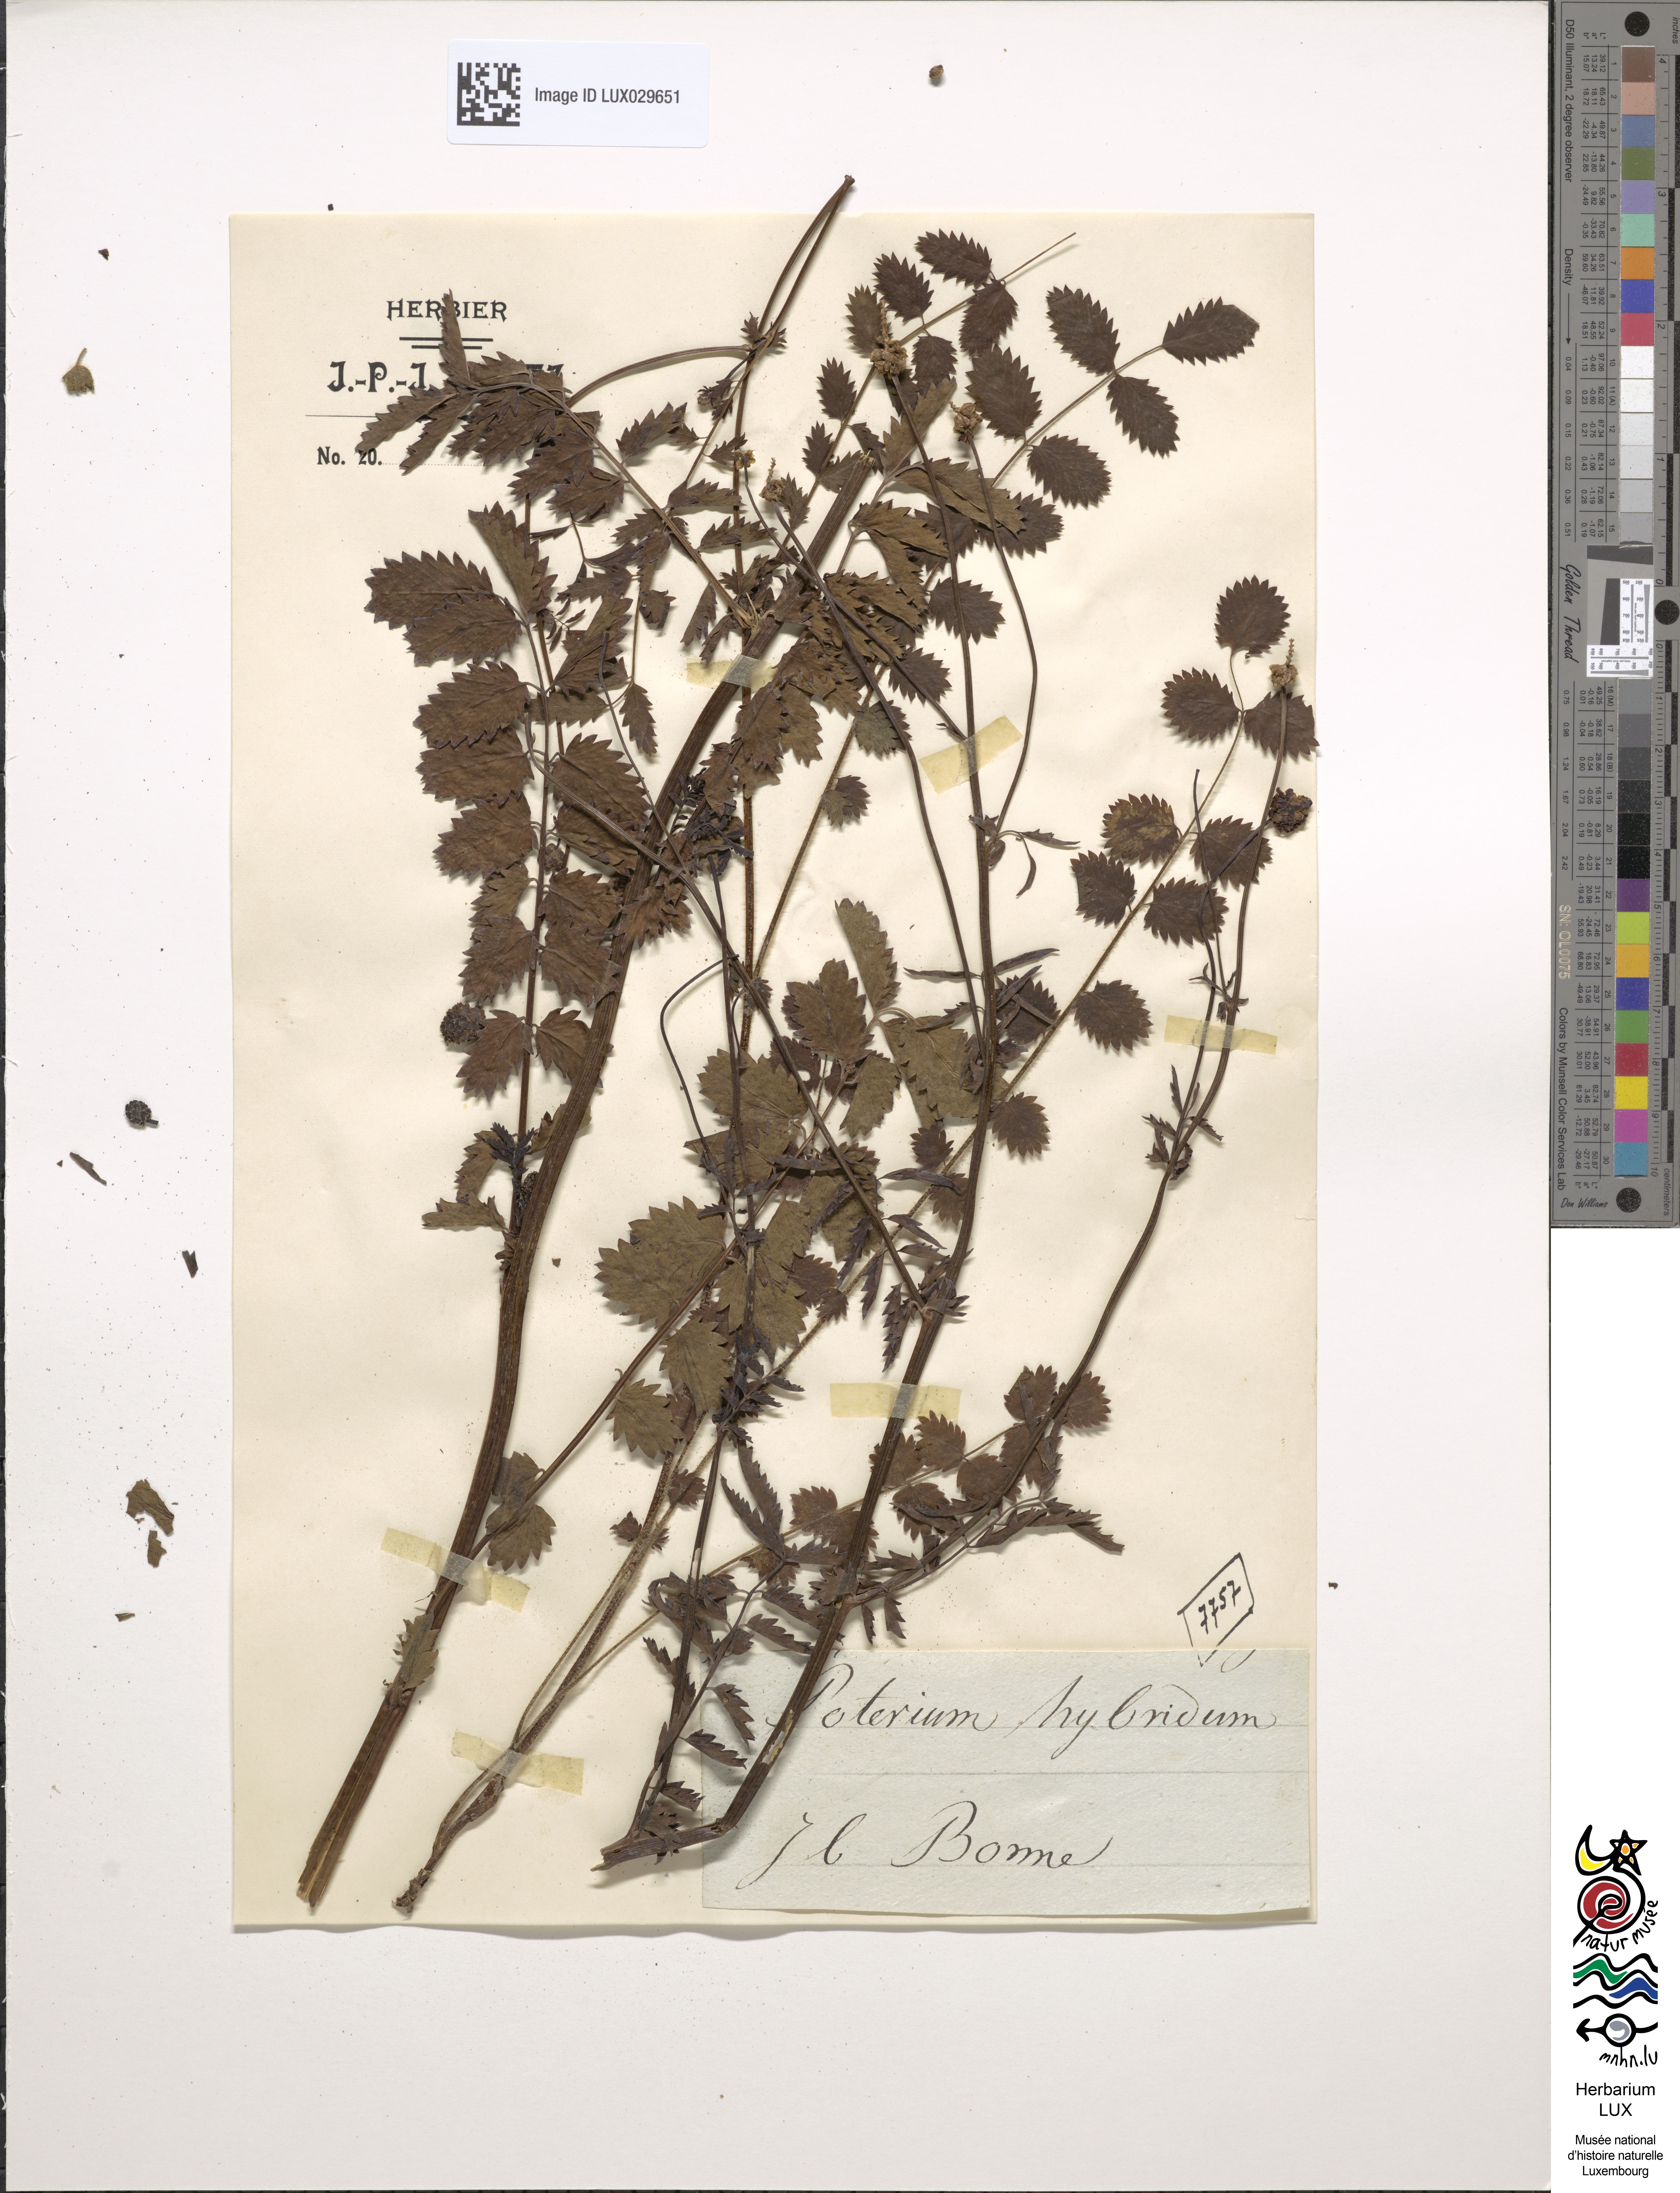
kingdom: Plantae
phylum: Tracheophyta
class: Magnoliopsida
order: Rosales
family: Rosaceae
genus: Poterium
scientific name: Poterium hybridum
